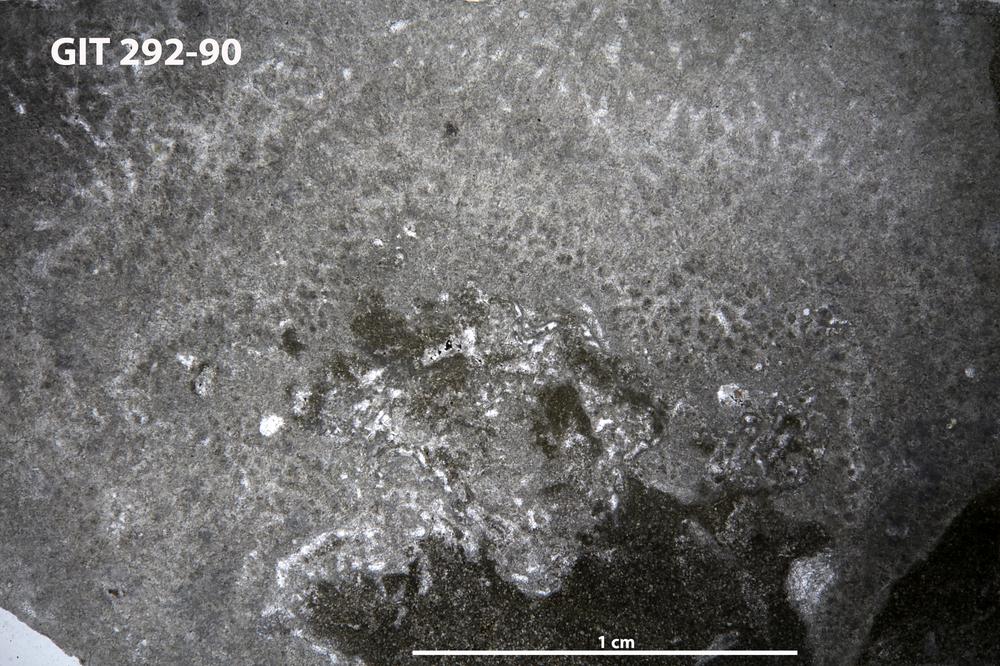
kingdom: Animalia
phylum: Porifera
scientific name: Porifera
